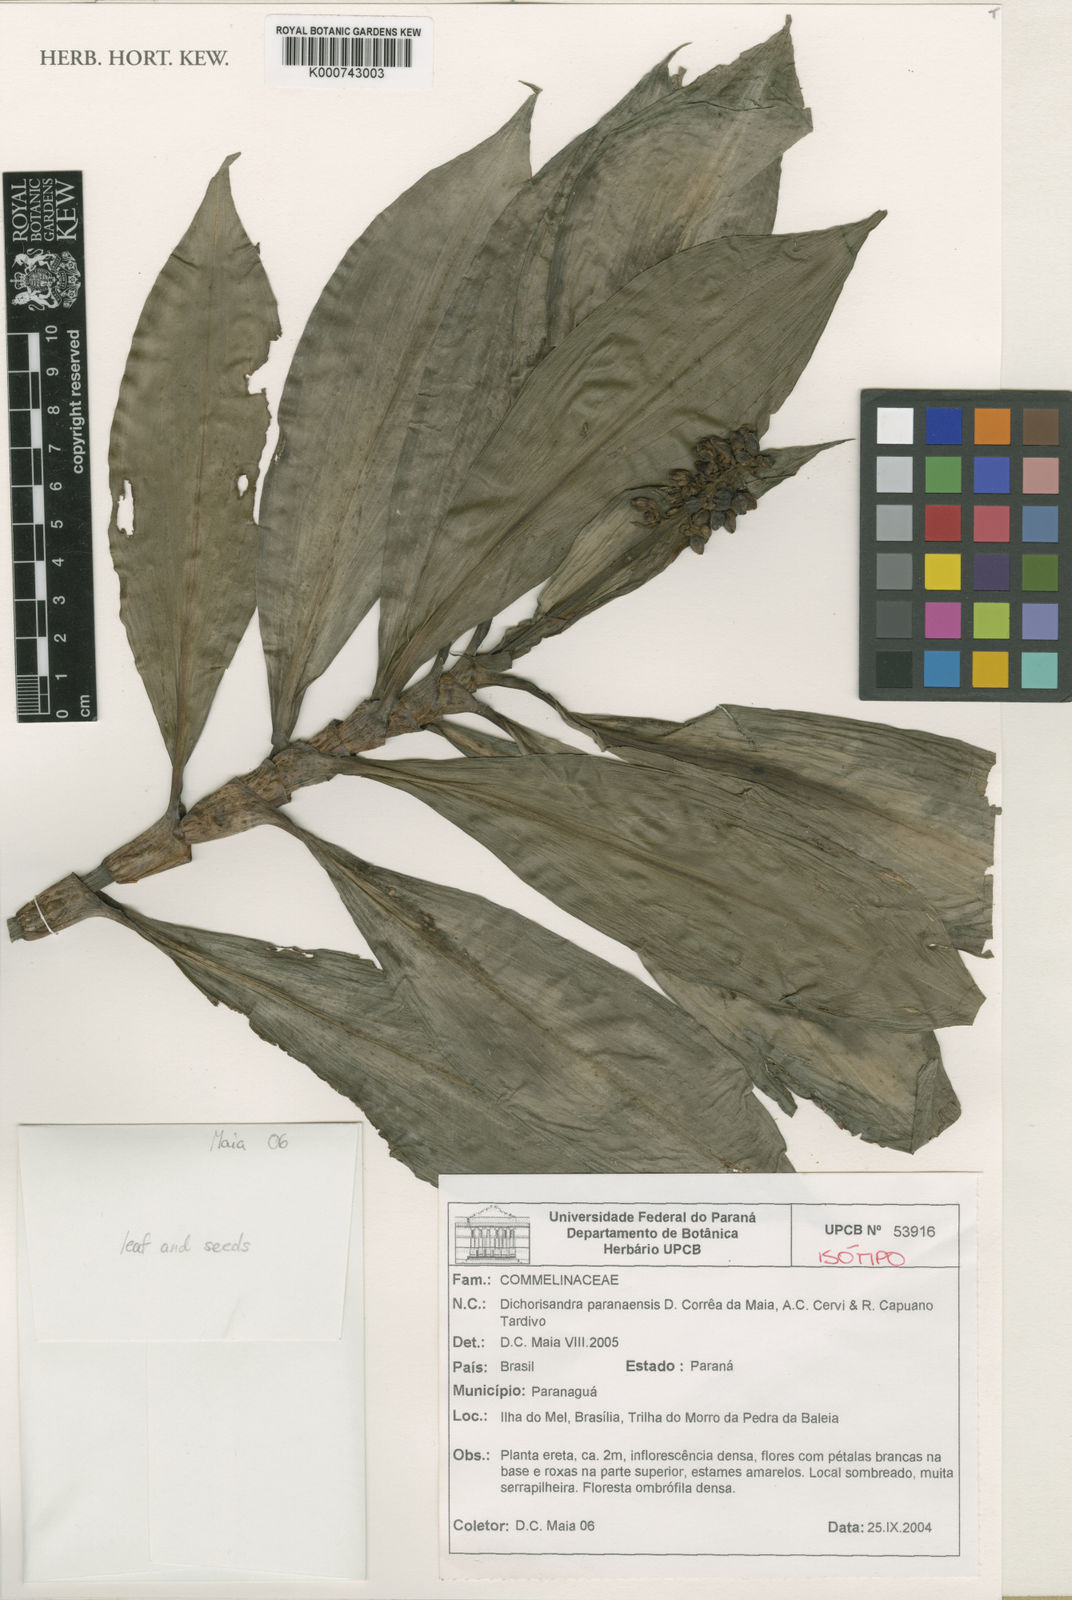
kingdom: Plantae
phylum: Tracheophyta
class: Liliopsida
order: Commelinales
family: Commelinaceae
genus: Dichorisandra
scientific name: Dichorisandra paranaensis
